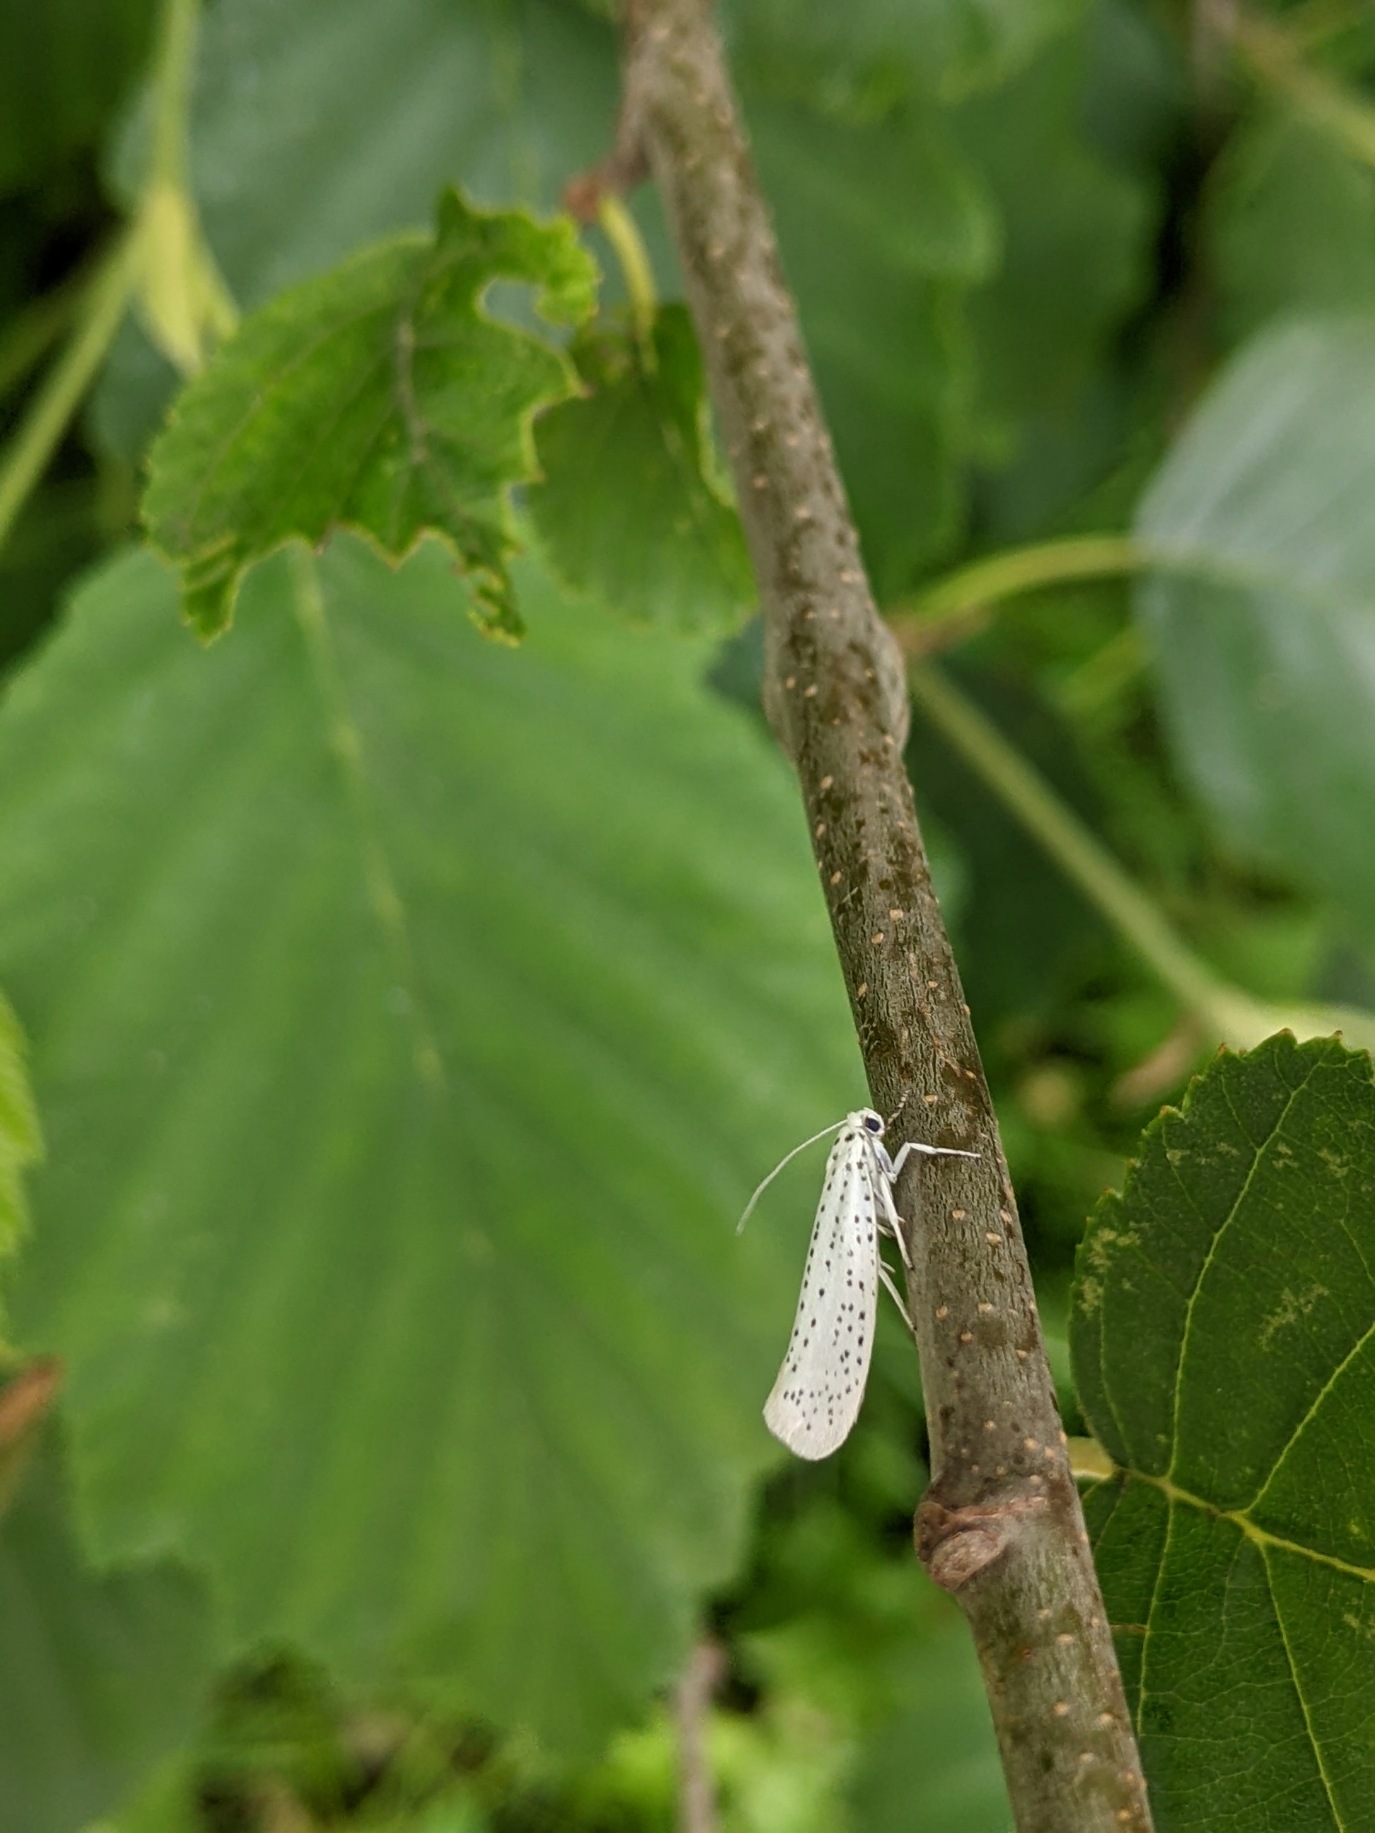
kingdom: Animalia
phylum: Arthropoda
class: Insecta
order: Lepidoptera
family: Yponomeutidae
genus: Yponomeuta
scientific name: Yponomeuta evonymella
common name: Hægspindemøl
